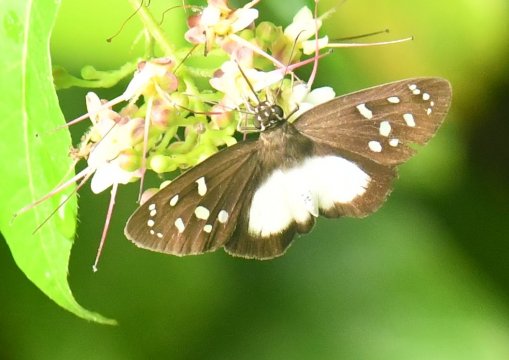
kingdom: Animalia
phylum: Arthropoda
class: Insecta
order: Lepidoptera
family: Hesperiidae
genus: Hyalothyrus
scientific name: Hyalothyrus neleus
